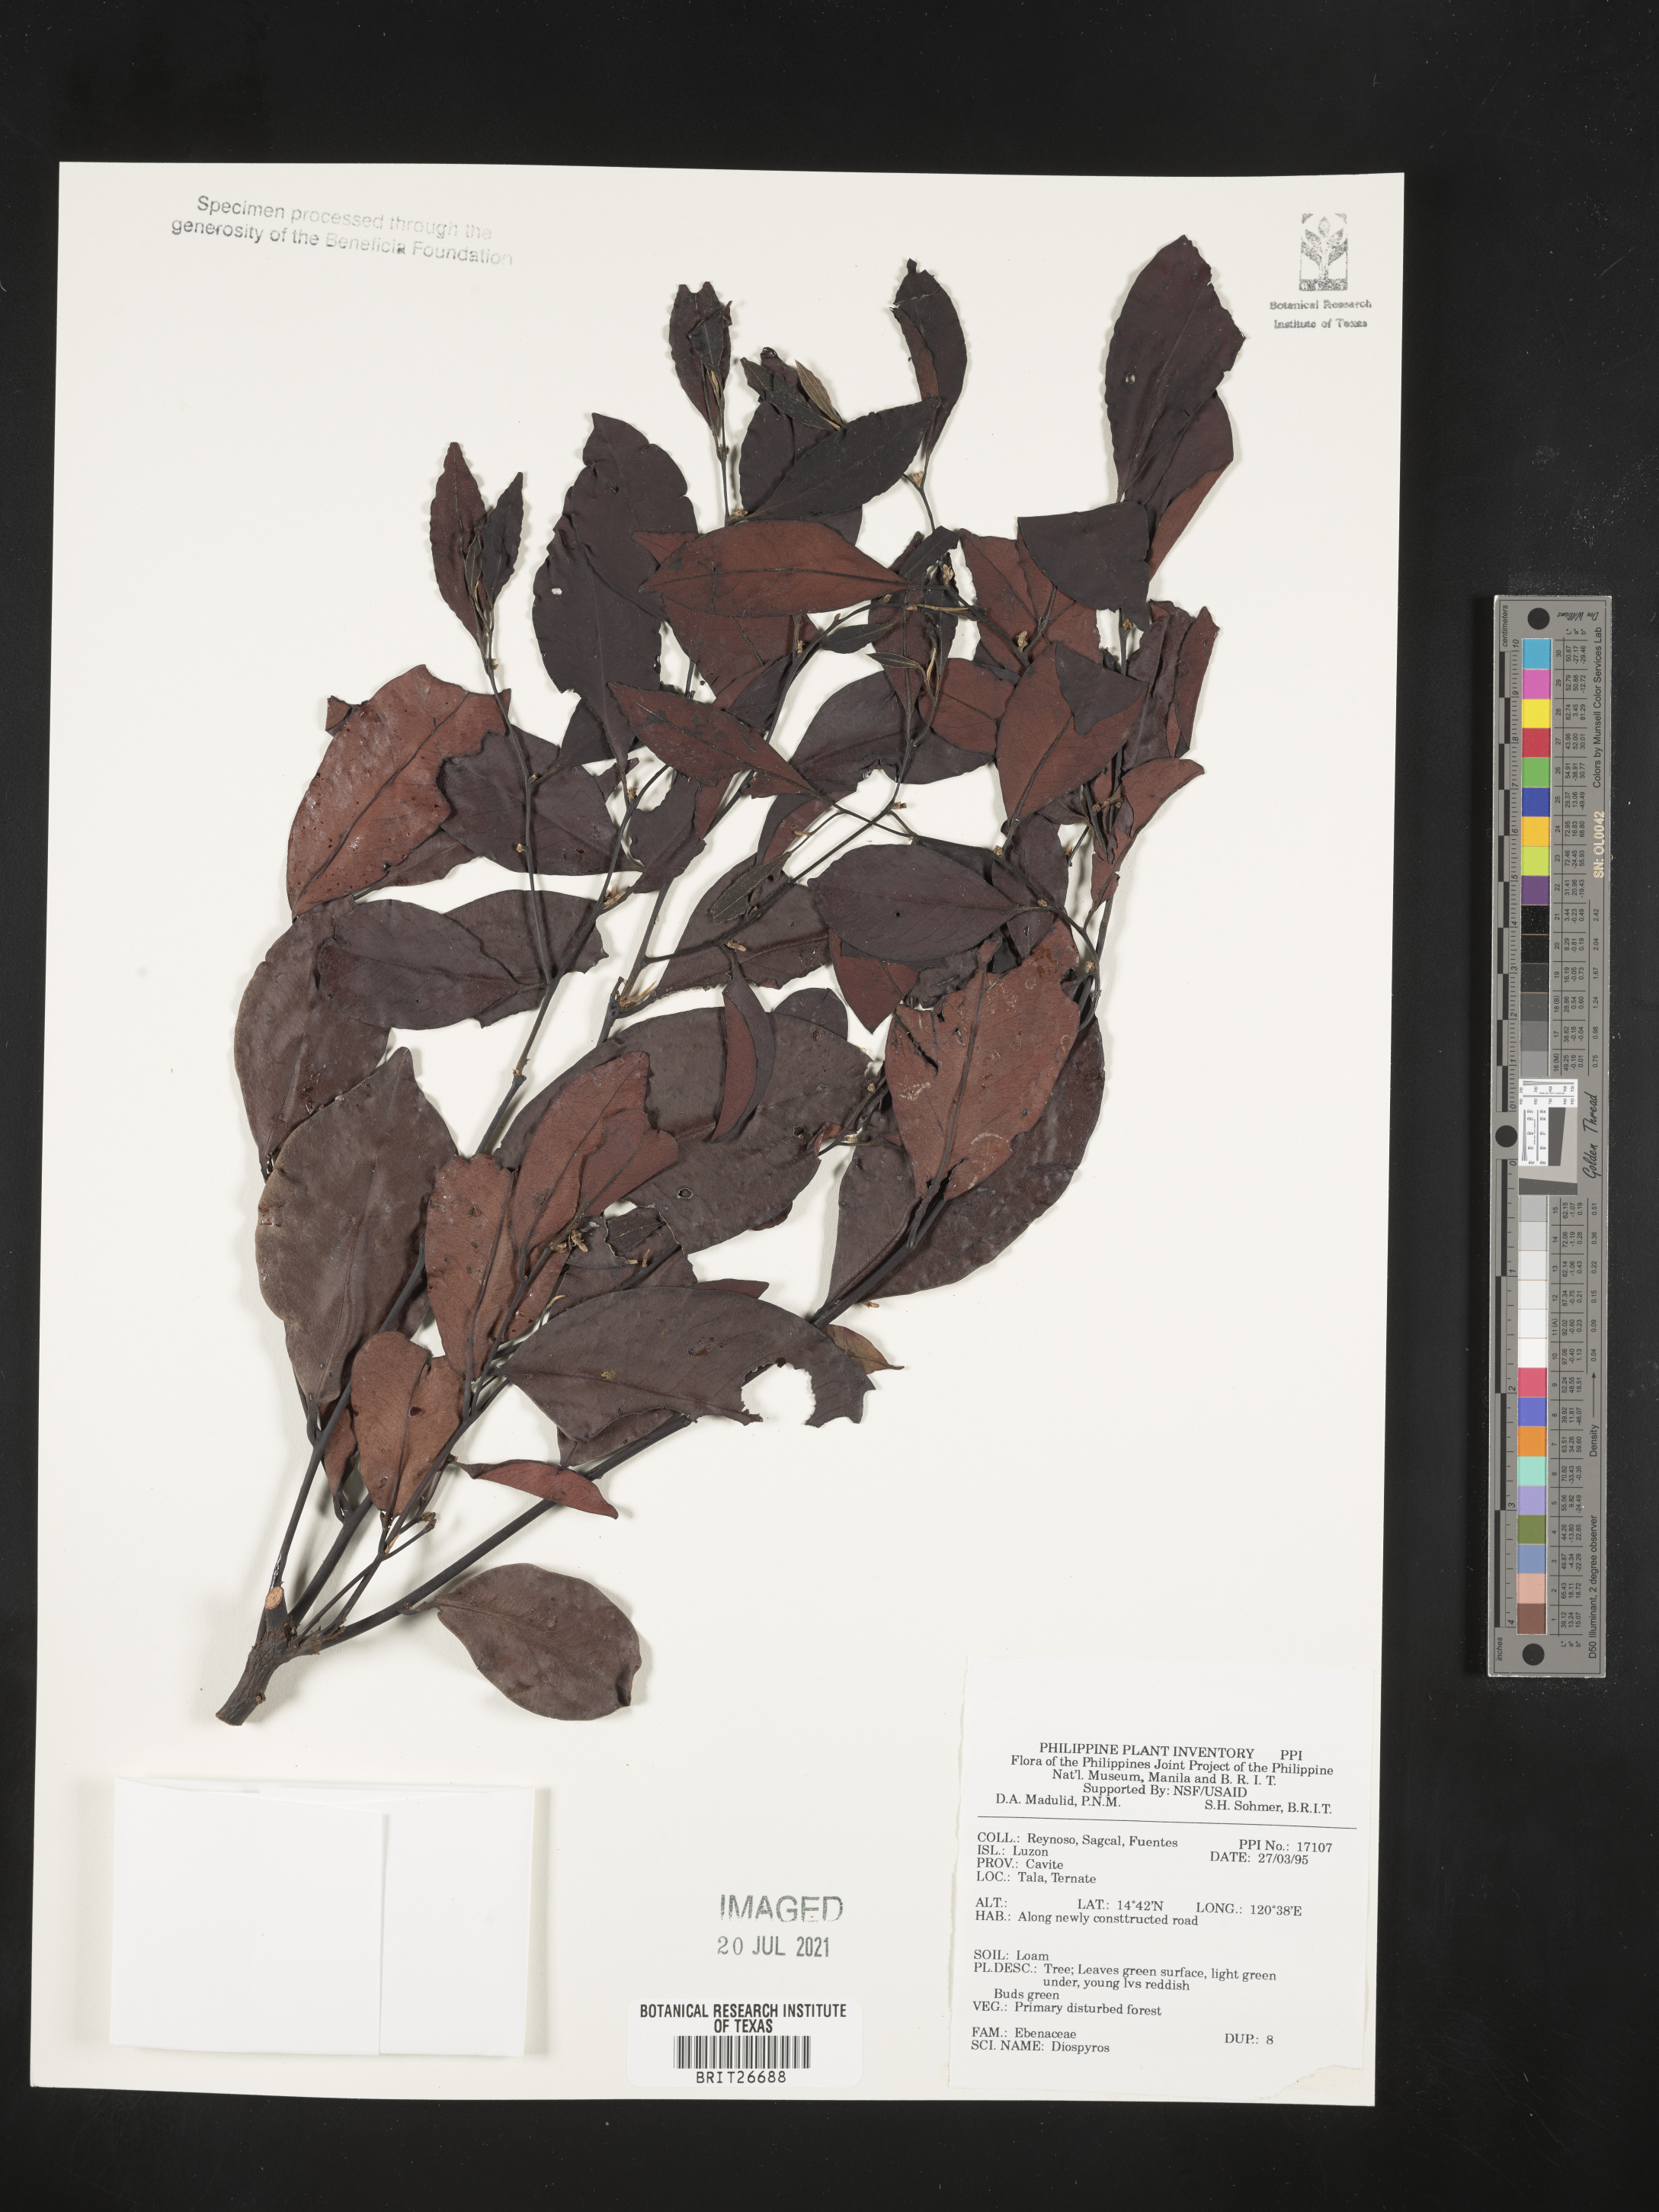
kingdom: Plantae
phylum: Tracheophyta
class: Magnoliopsida
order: Ericales
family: Ebenaceae
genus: Diospyros
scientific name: Diospyros
